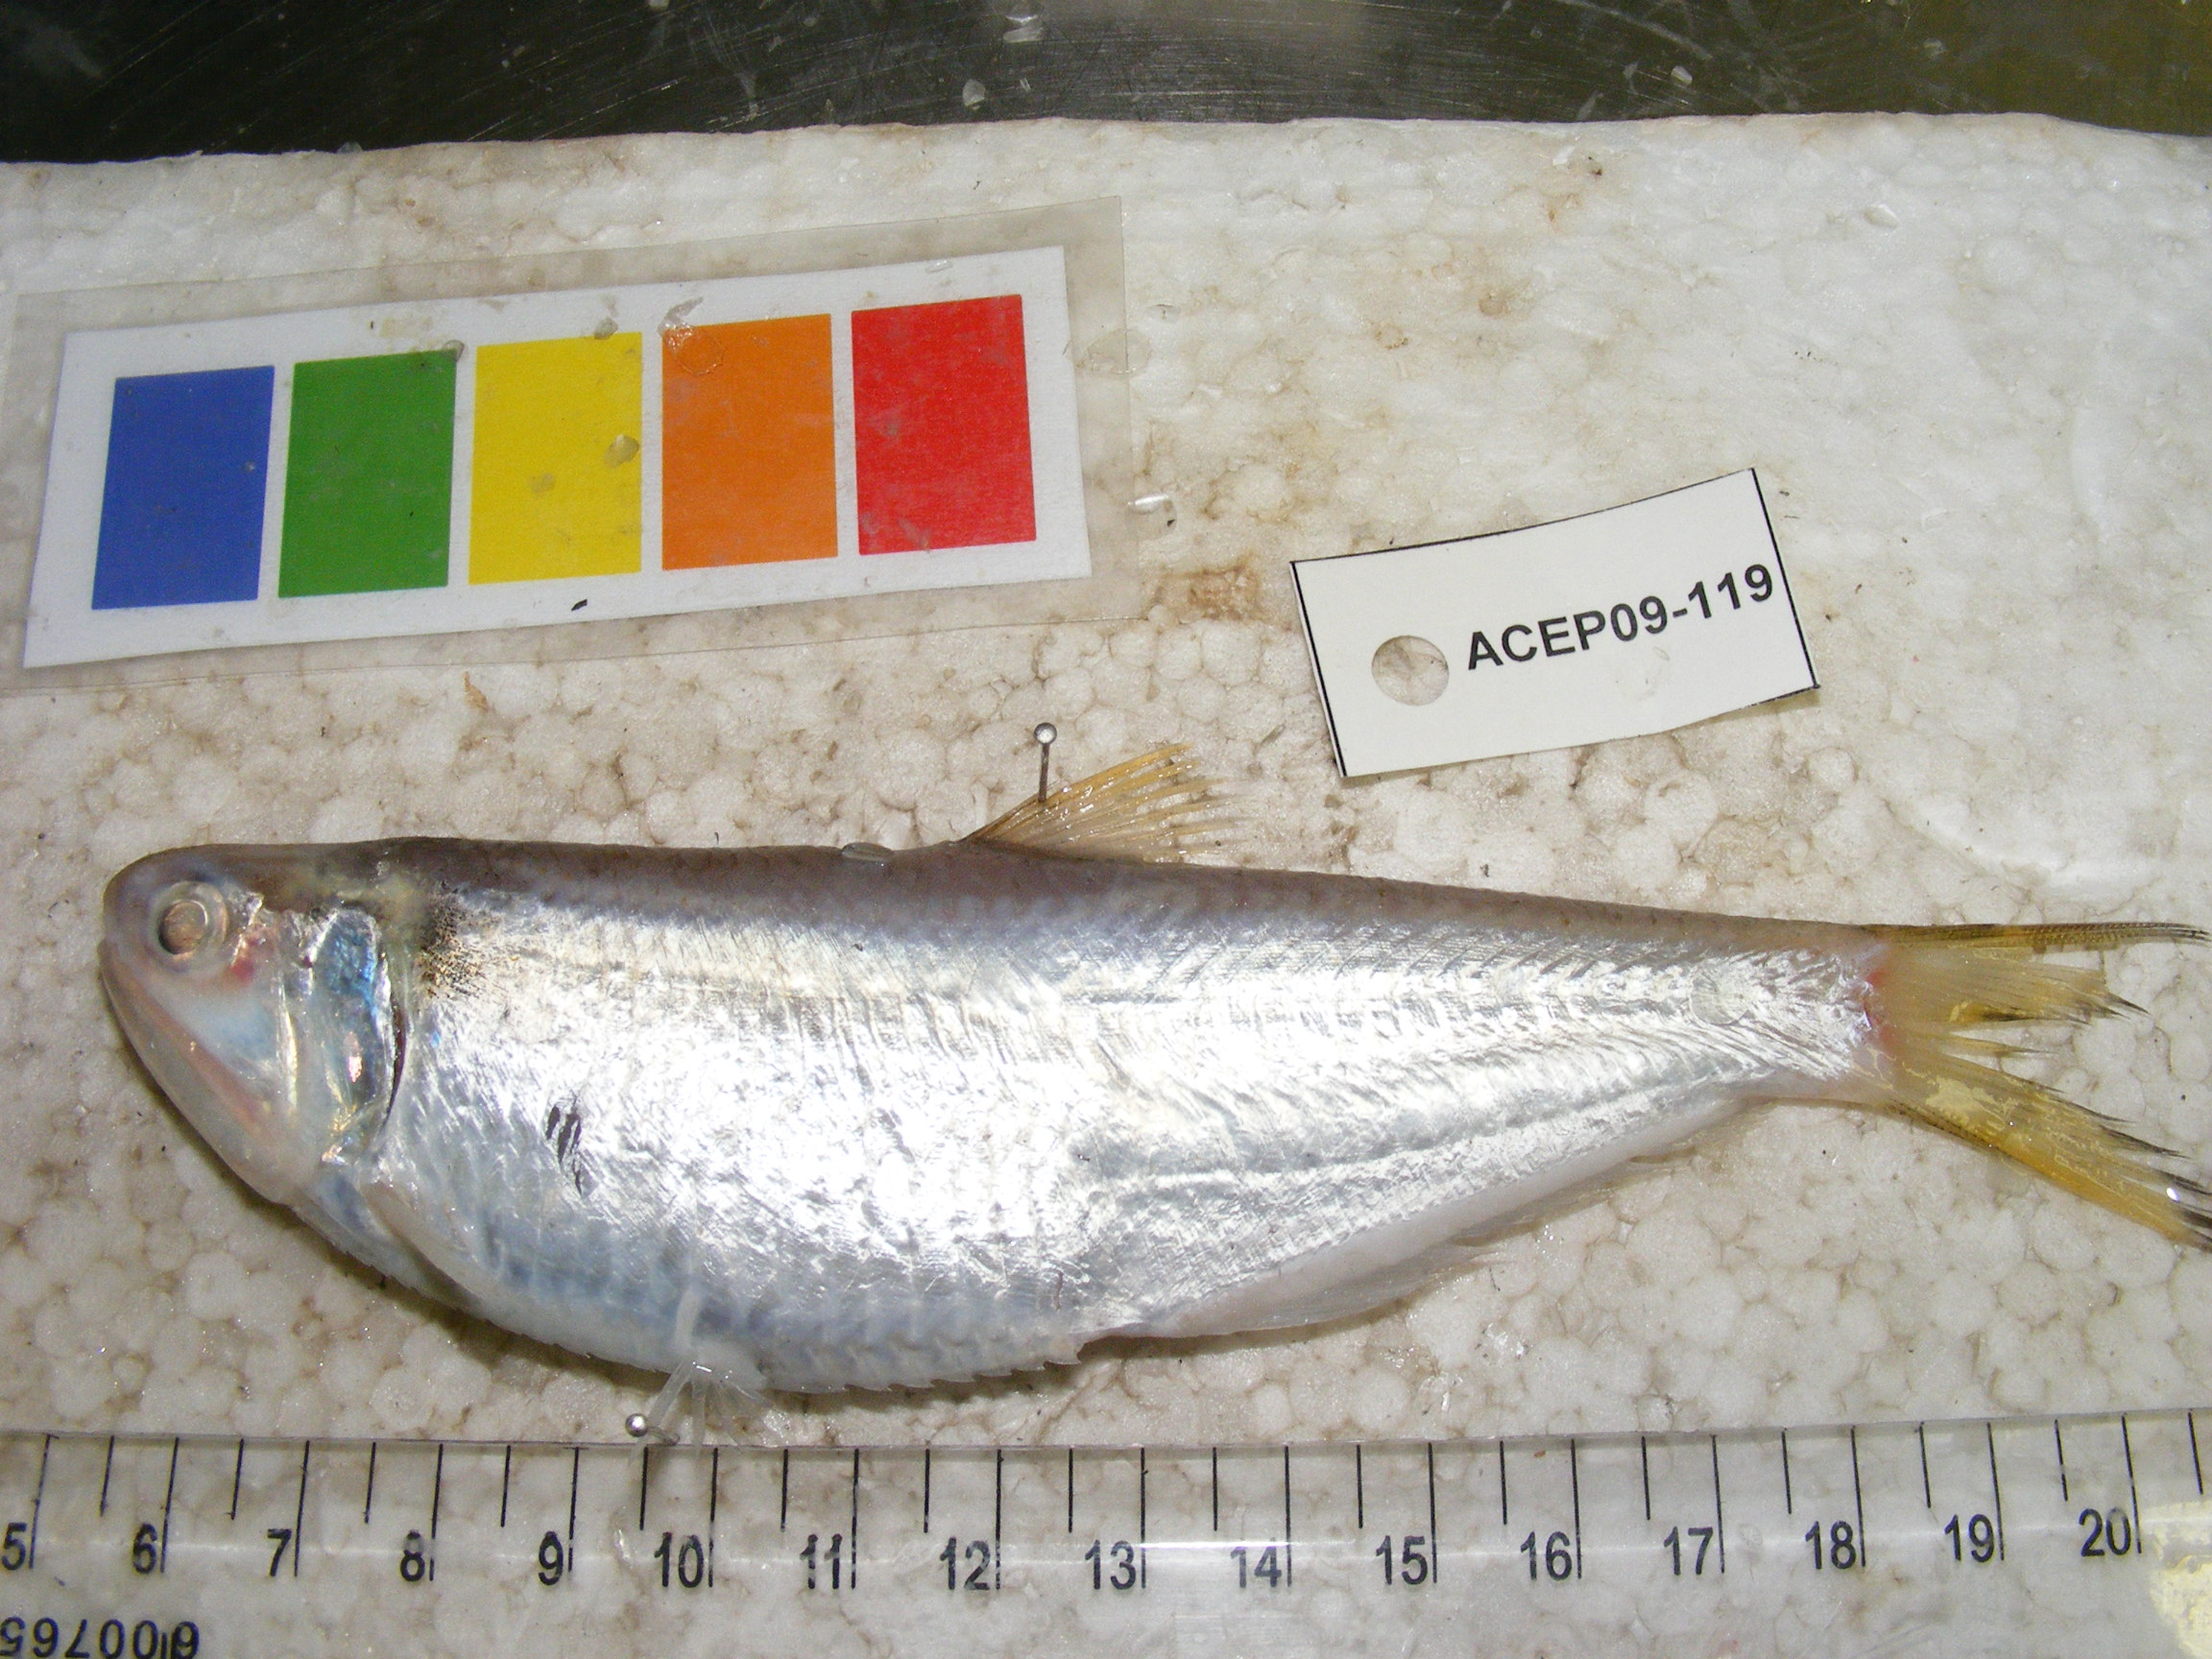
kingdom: Animalia
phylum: Chordata
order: Clupeiformes
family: Engraulidae
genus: Thryssa
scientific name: Thryssa vitrirostris
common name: Orangemouth anchovy
